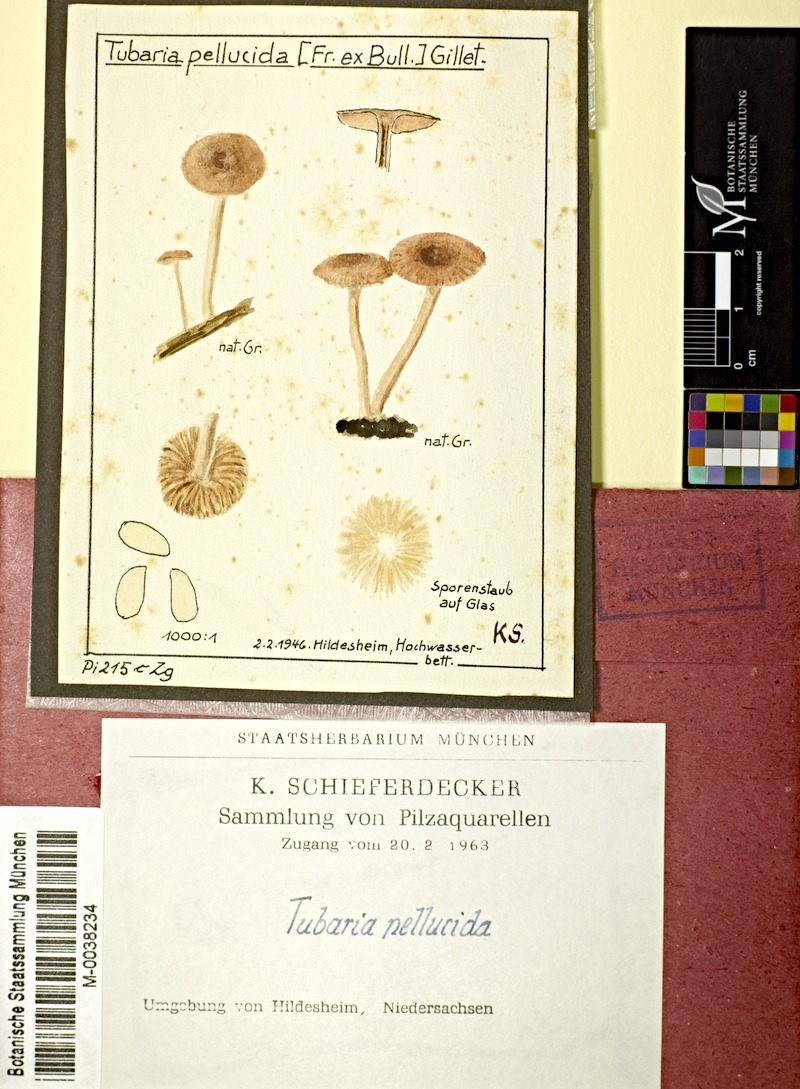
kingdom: Fungi
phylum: Basidiomycota
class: Agaricomycetes
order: Agaricales
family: Tubariaceae
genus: Tubaria
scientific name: Tubaria romagnesiana
